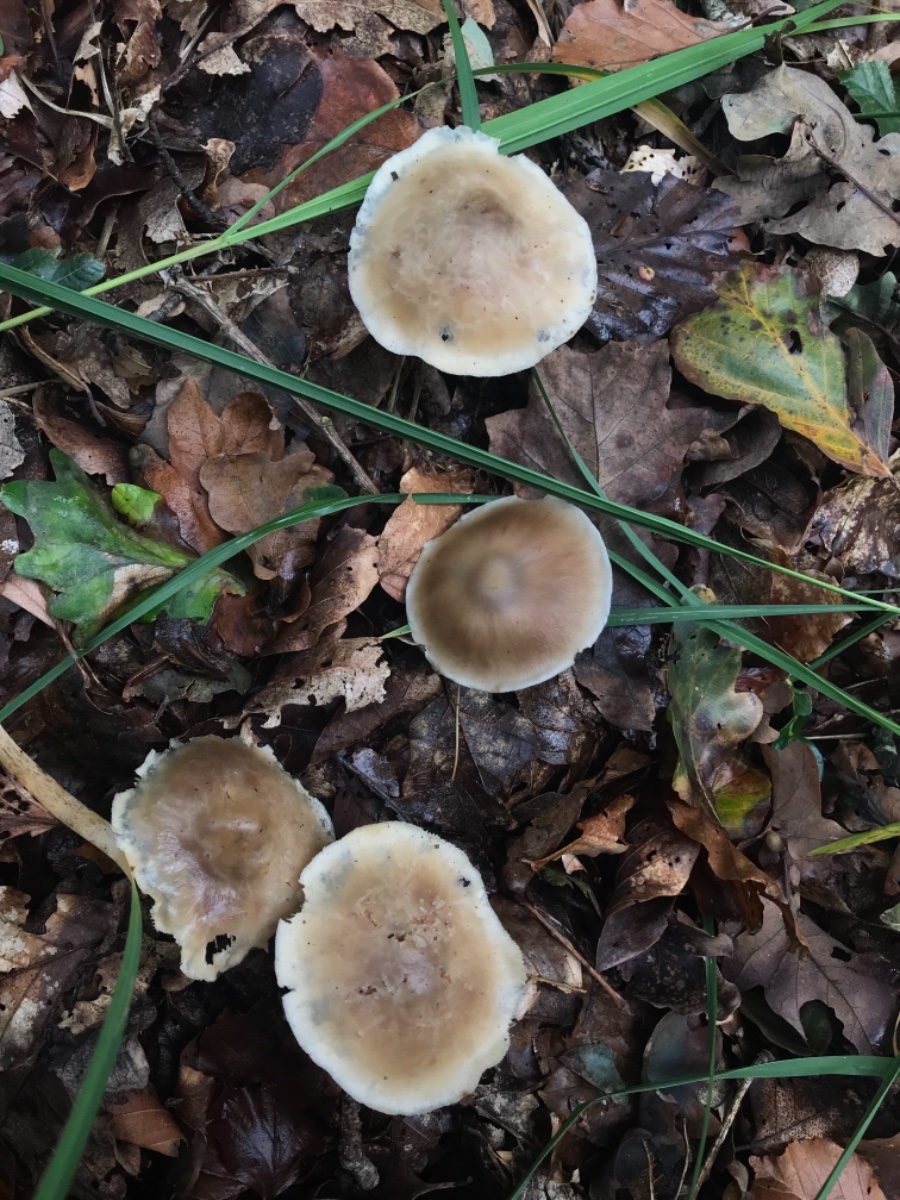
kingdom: Fungi
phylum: Basidiomycota
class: Agaricomycetes
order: Agaricales
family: Omphalotaceae
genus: Rhodocollybia
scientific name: Rhodocollybia asema
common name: horngrå fladhat
